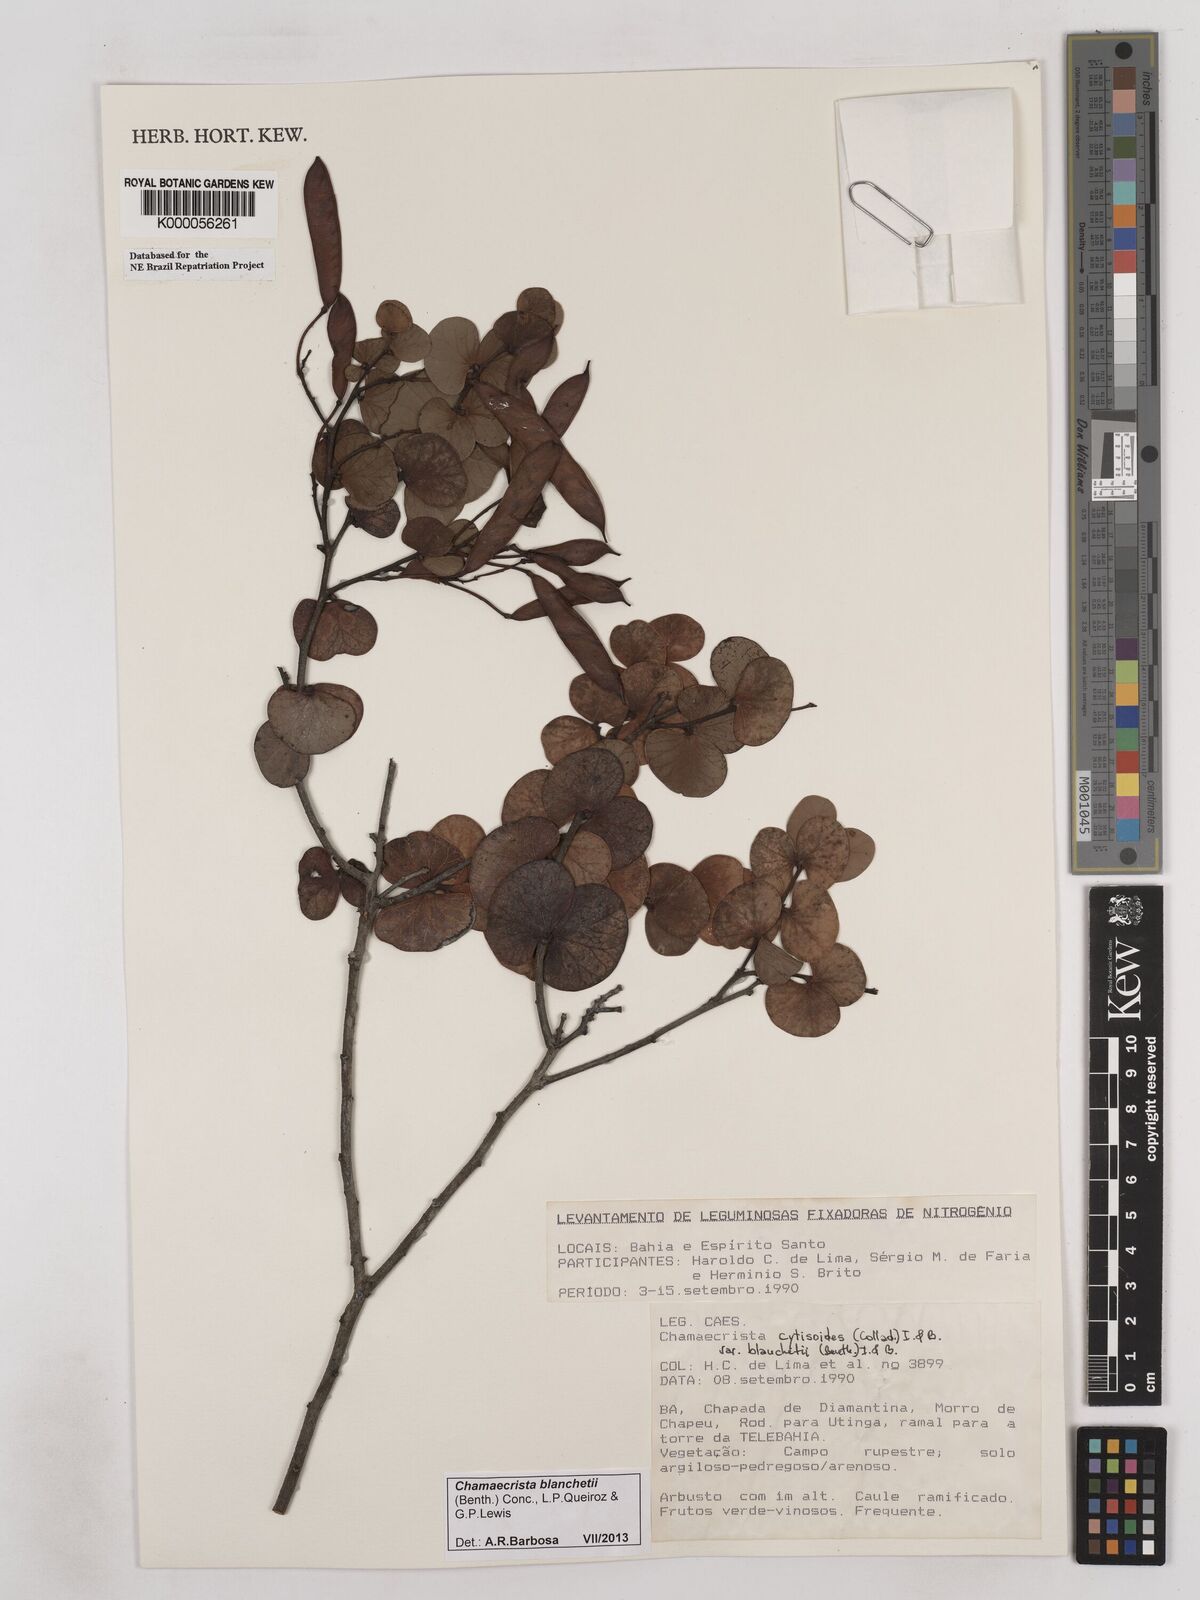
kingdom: Plantae
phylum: Tracheophyta
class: Magnoliopsida
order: Fabales
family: Fabaceae
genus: Chamaecrista
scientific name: Chamaecrista cytisoides
